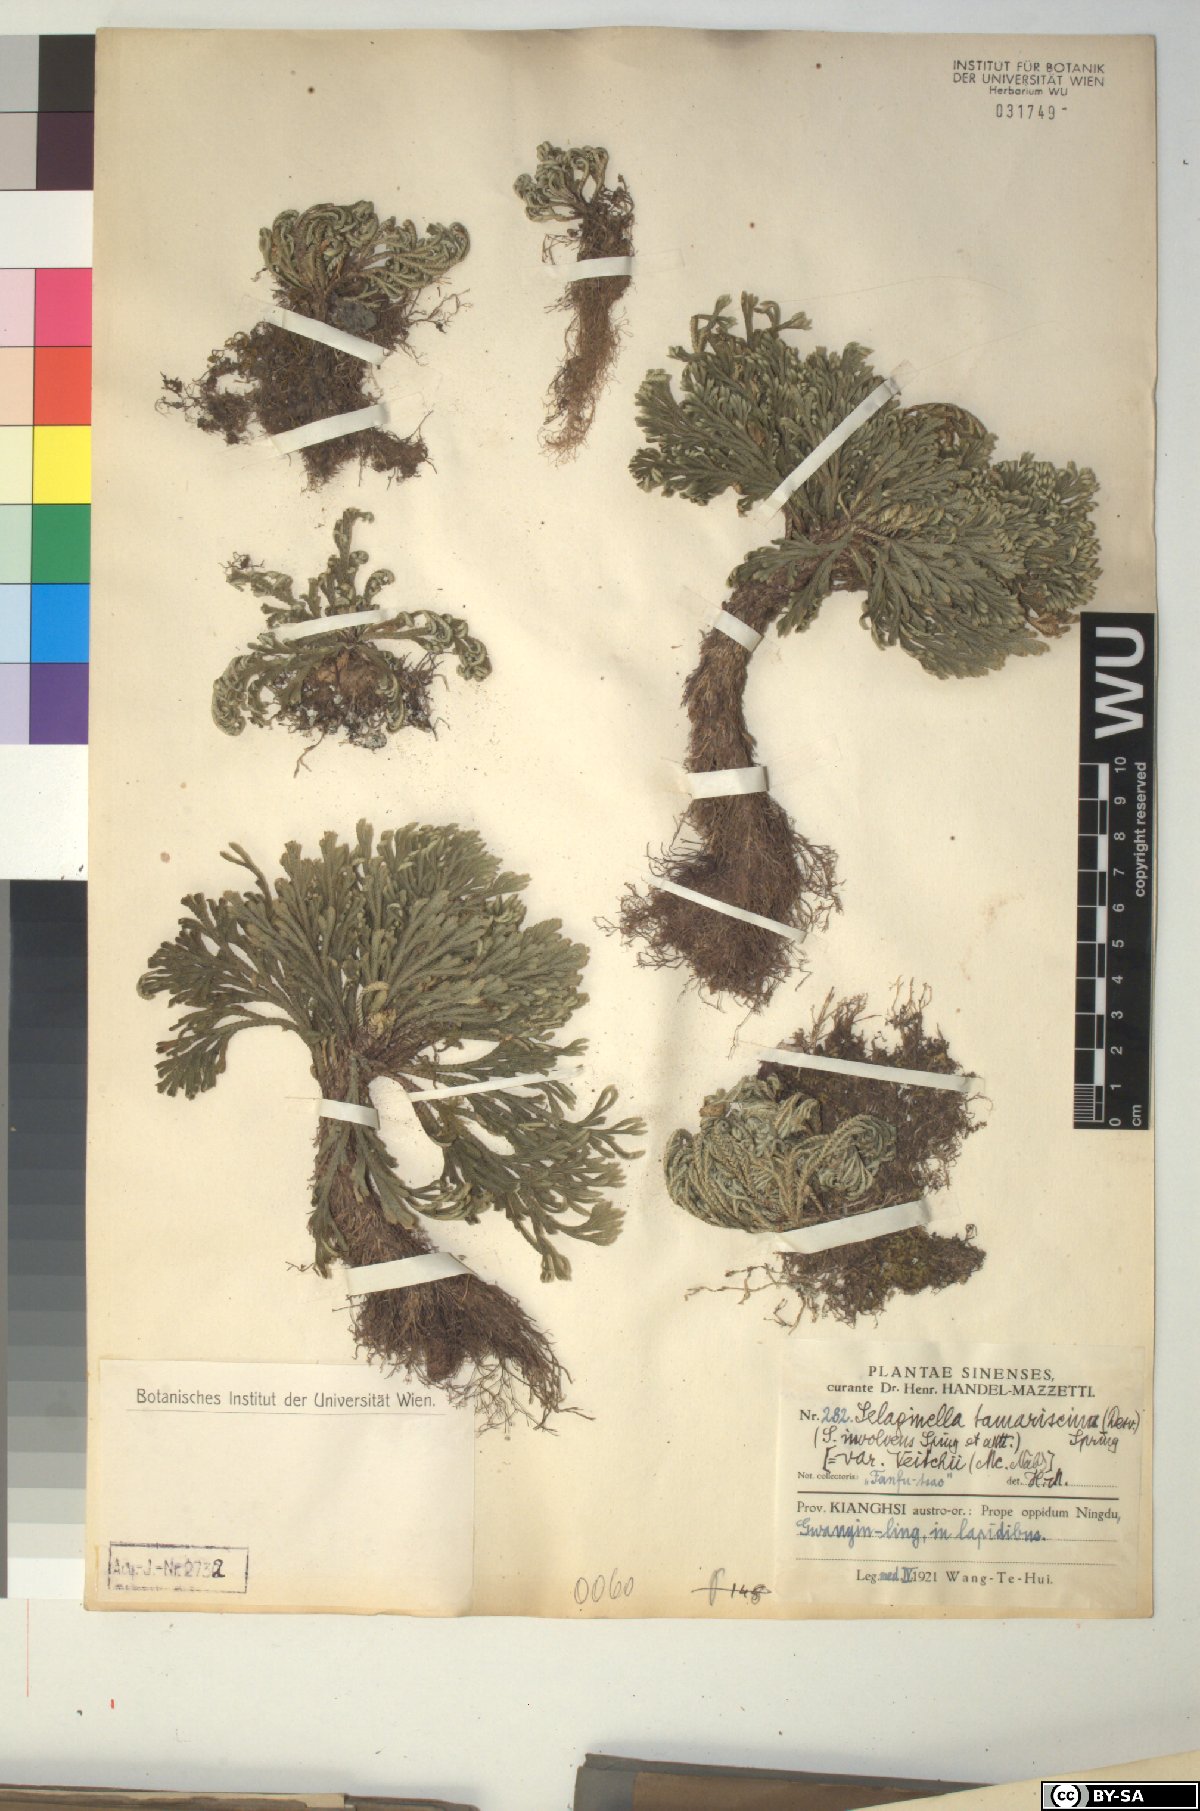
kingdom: Plantae
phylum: Tracheophyta
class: Lycopodiopsida
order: Selaginellales
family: Selaginellaceae
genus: Selaginella
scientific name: Selaginella tamariscina
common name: Little-club-moss
